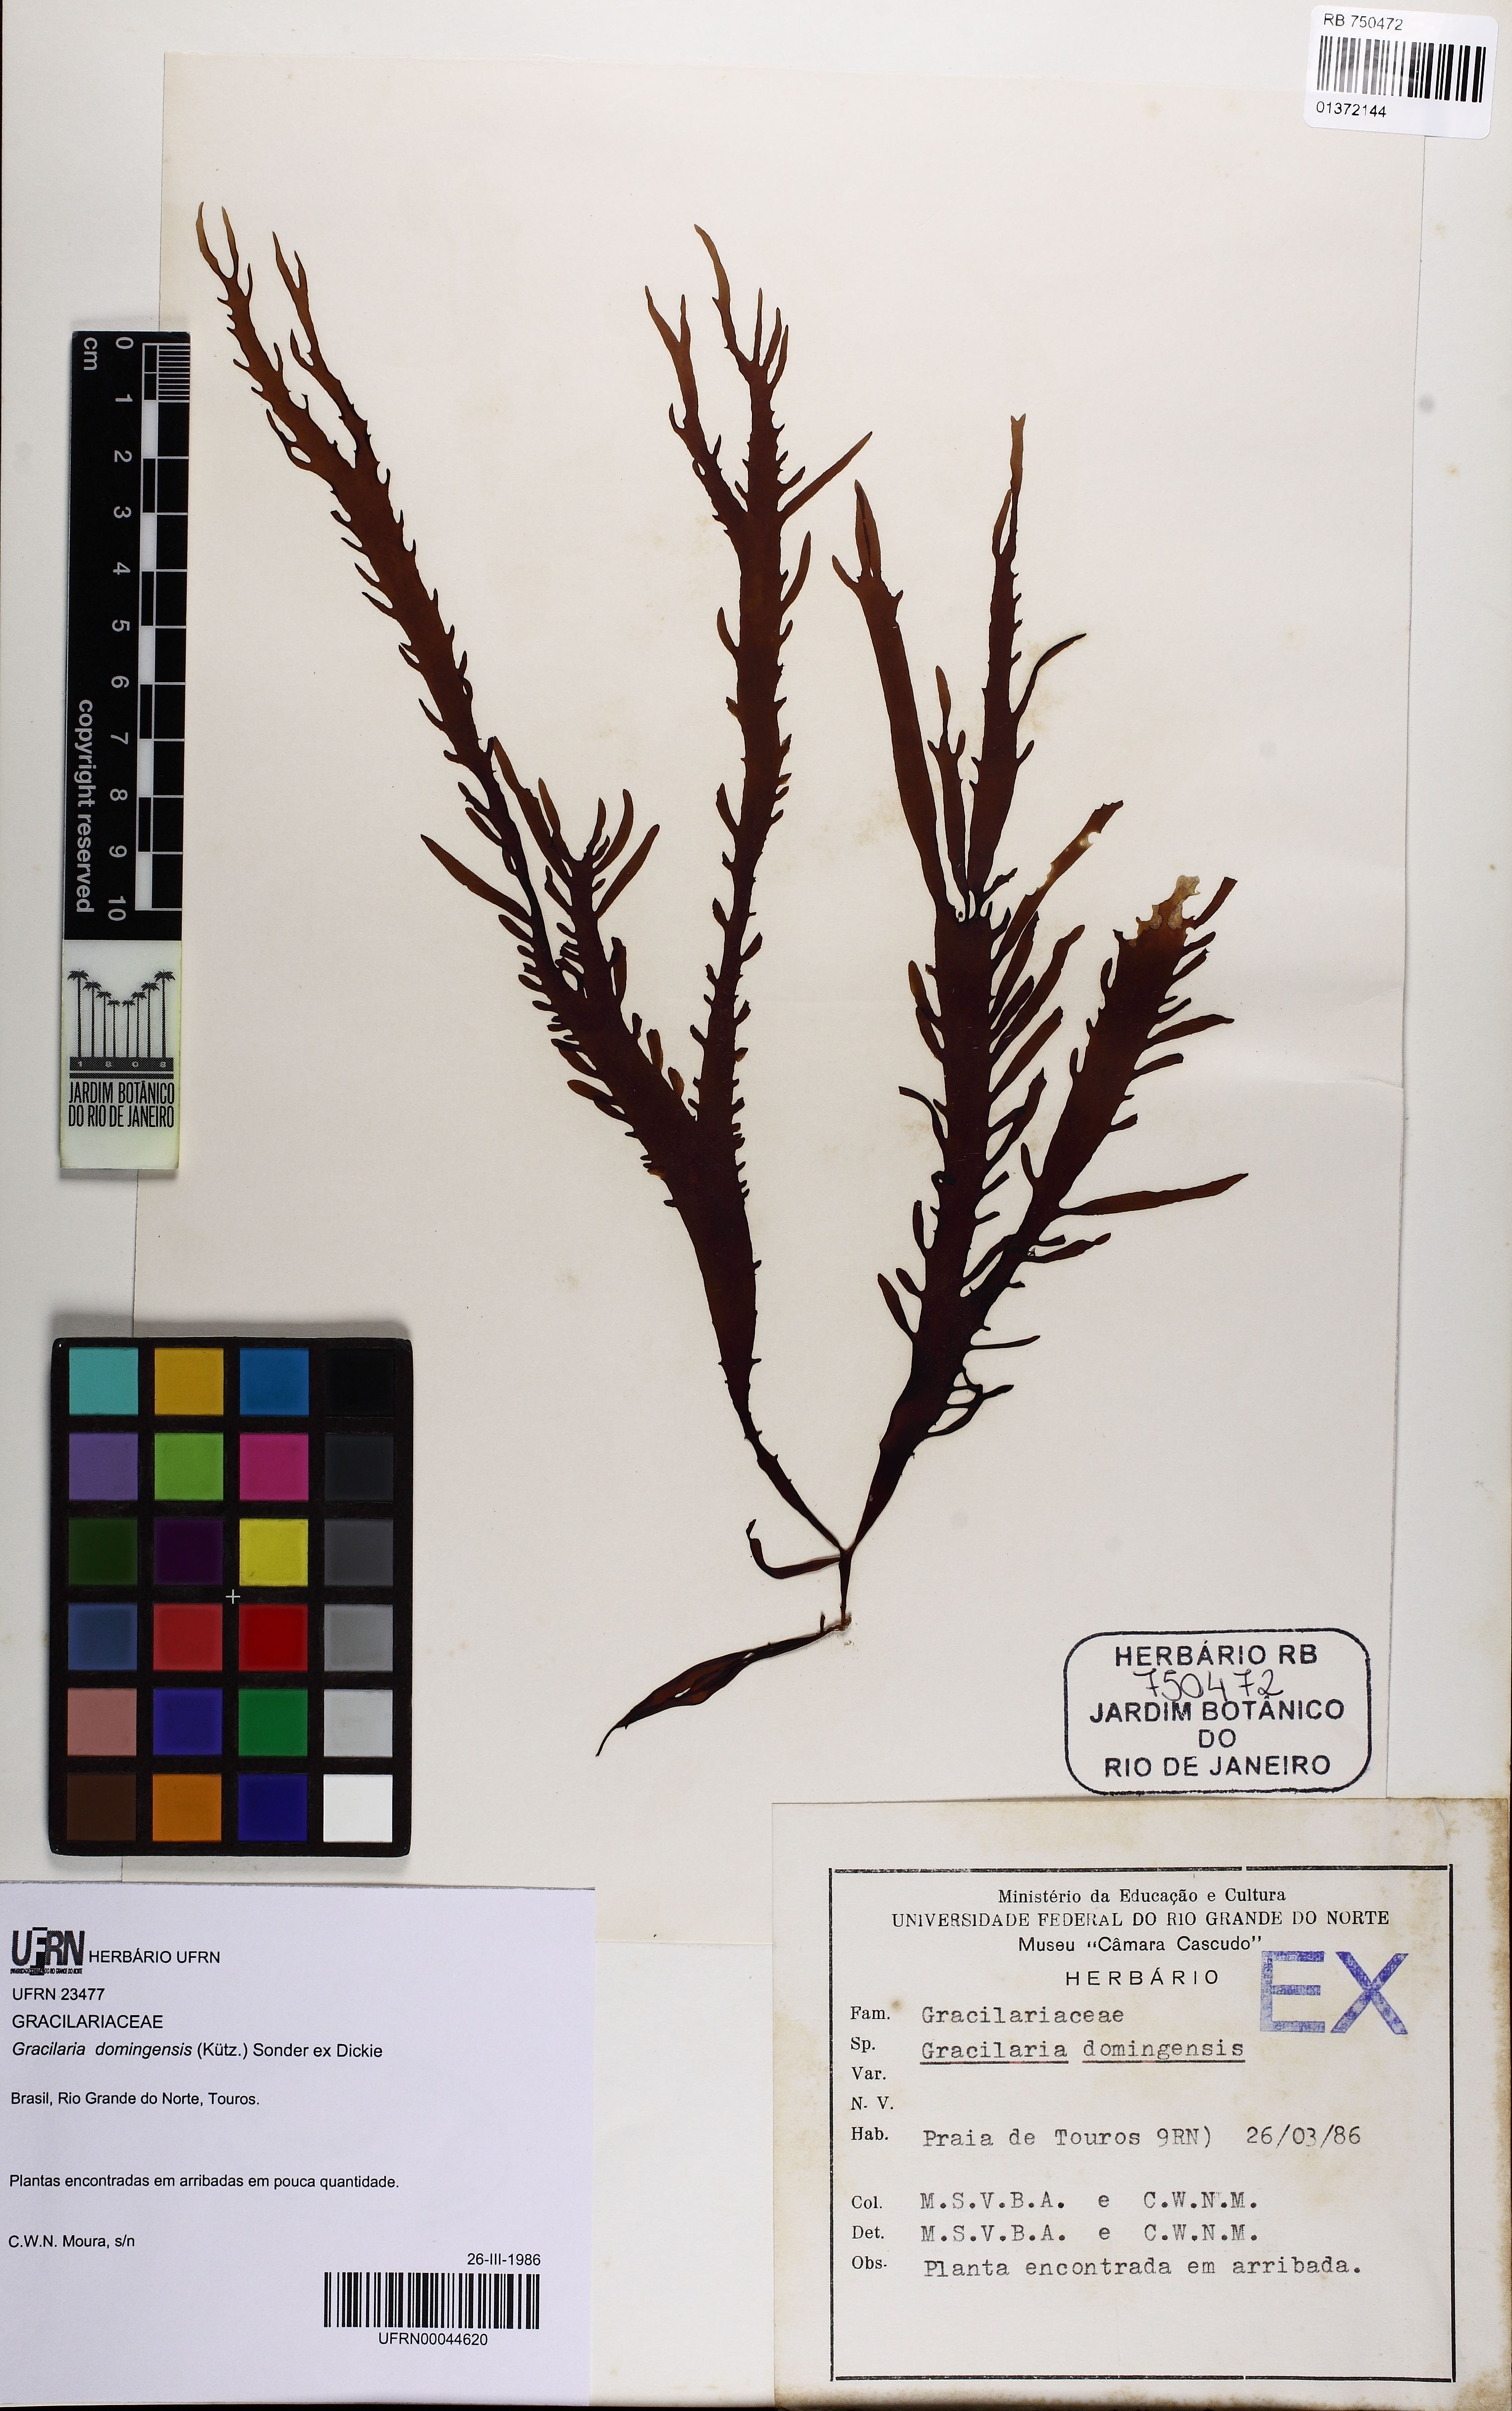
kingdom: Plantae
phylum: Rhodophyta
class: Florideophyceae
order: Gracilariales
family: Gracilariaceae
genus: Gracilaria
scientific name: Gracilaria domingensis
